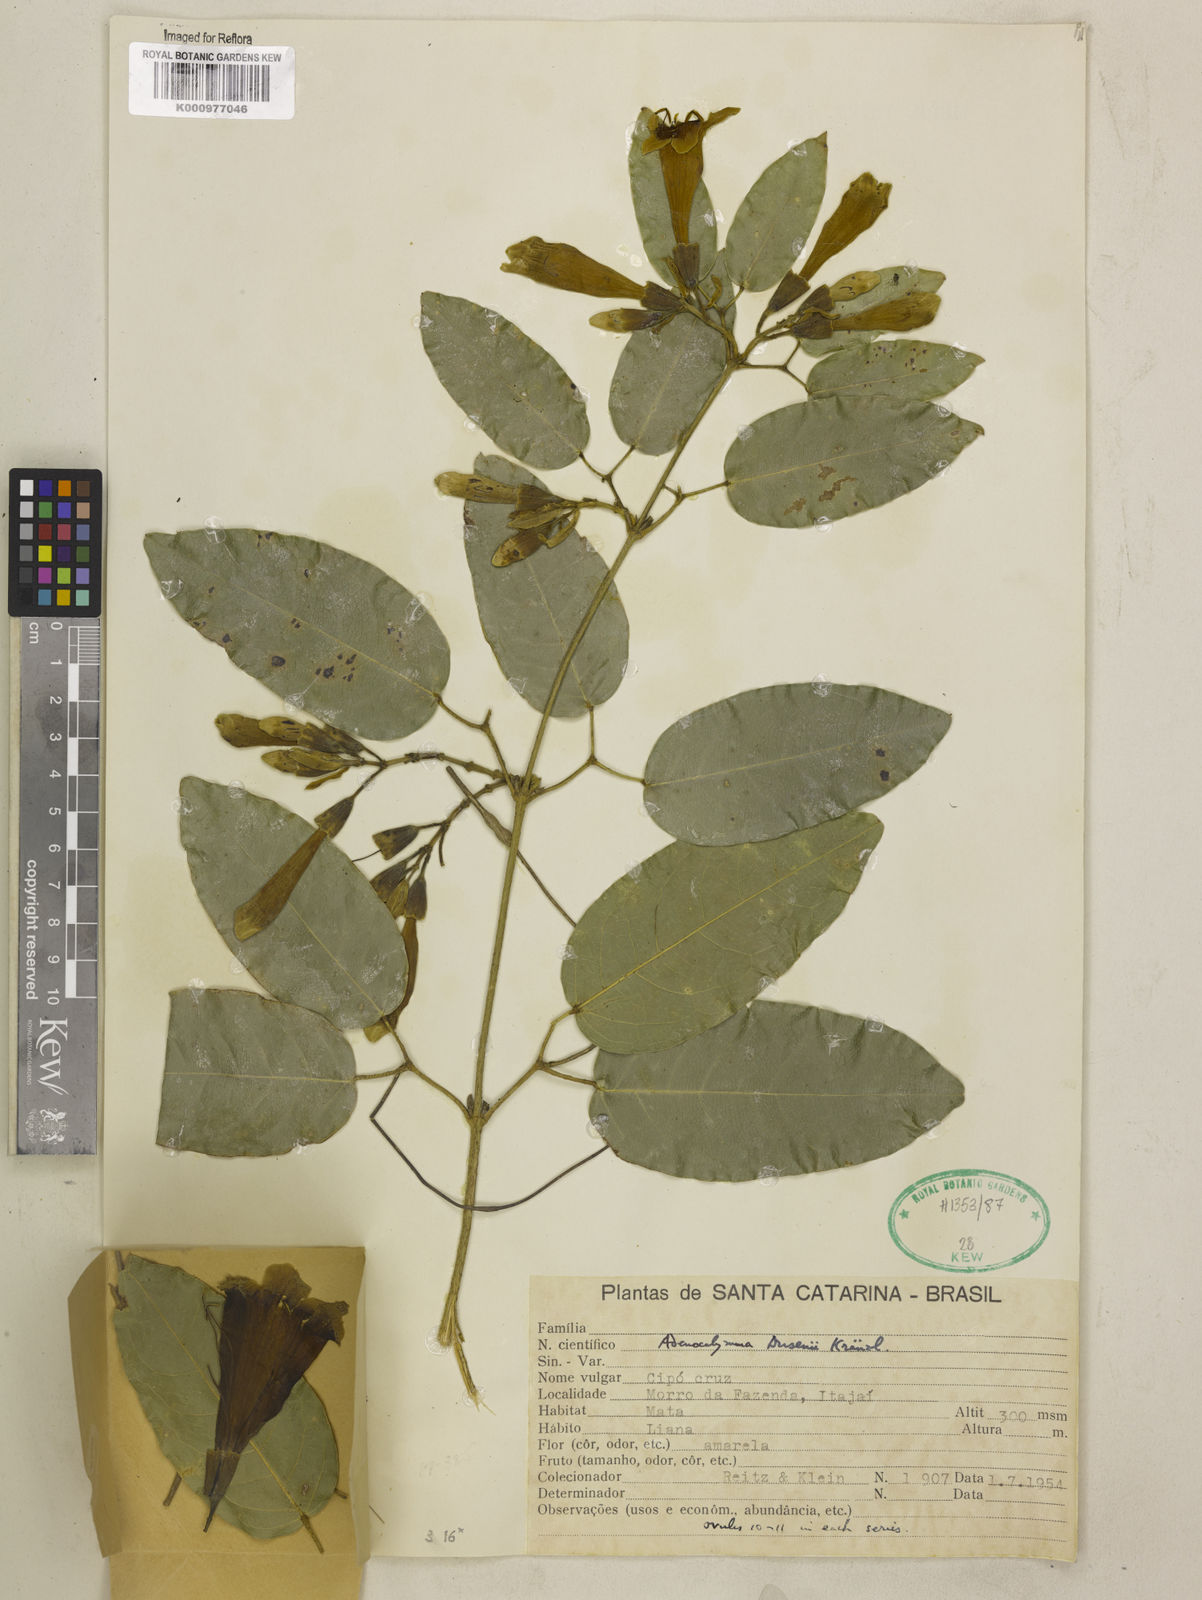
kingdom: Plantae
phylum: Tracheophyta
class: Magnoliopsida
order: Lamiales
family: Bignoniaceae
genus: Adenocalymma
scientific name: Adenocalymma dusenii
